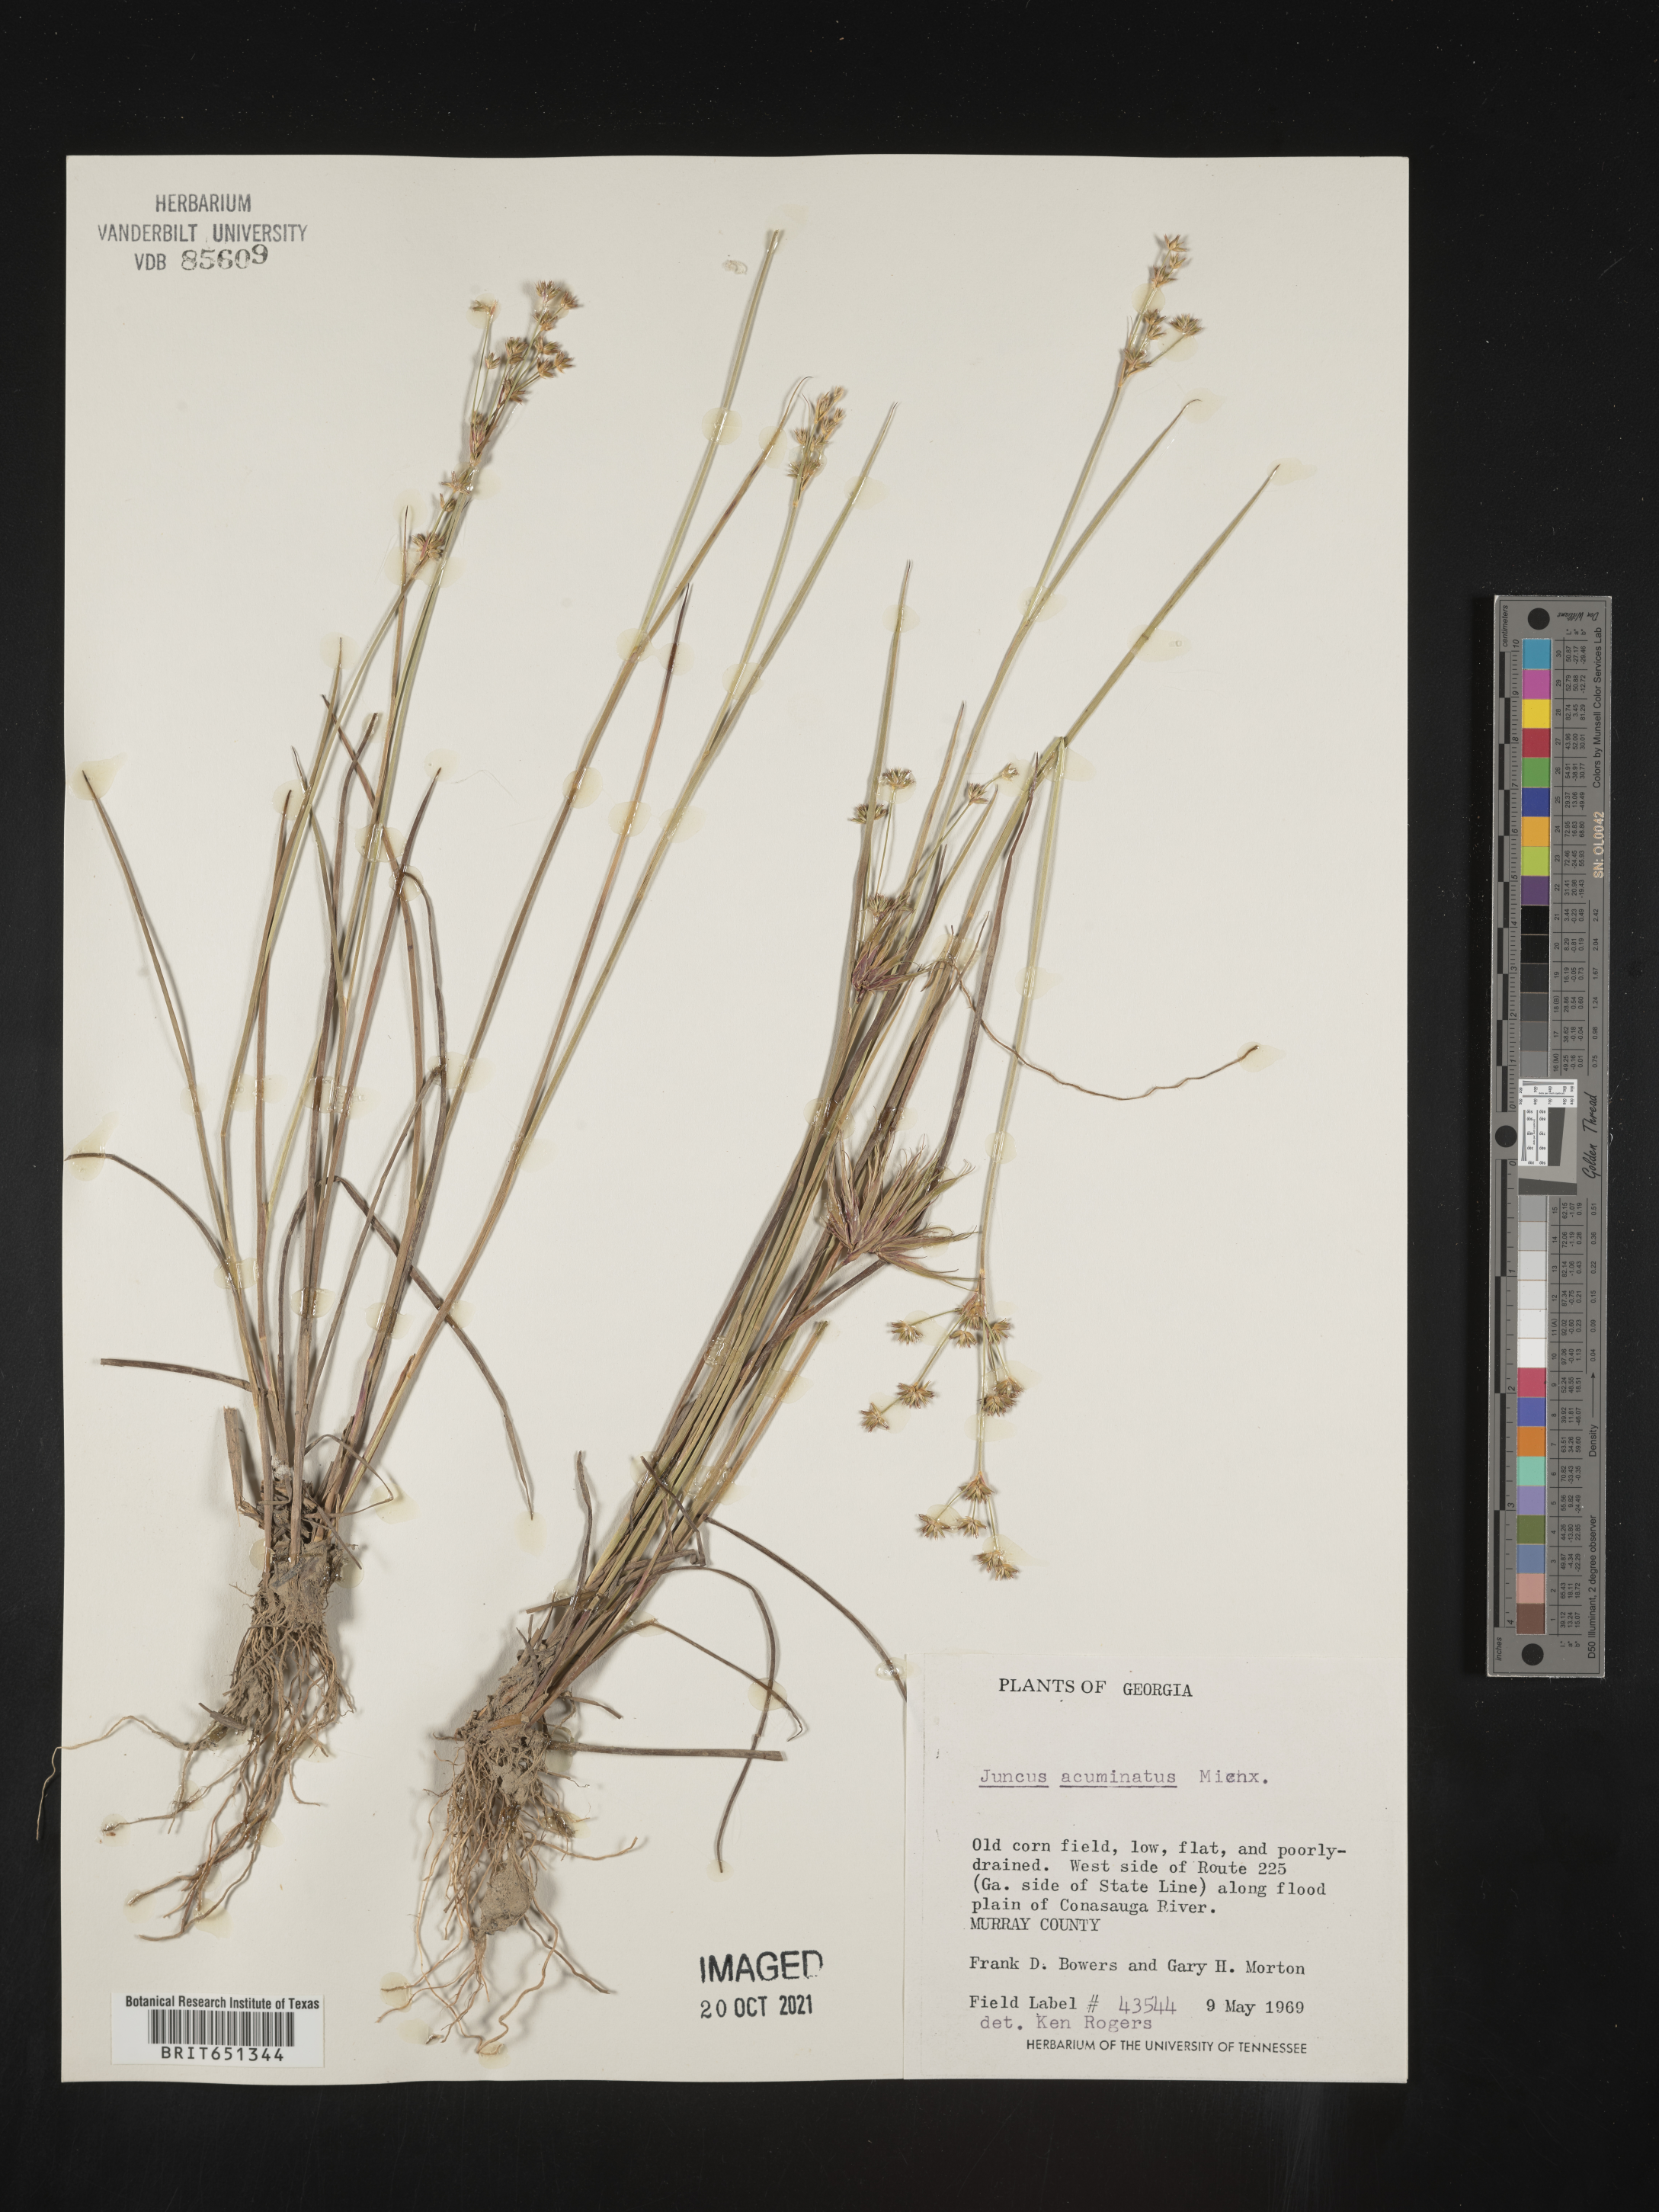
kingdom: Plantae
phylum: Tracheophyta
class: Liliopsida
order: Poales
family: Juncaceae
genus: Juncus
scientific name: Juncus acuminatus
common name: Knotty-leaved rush
